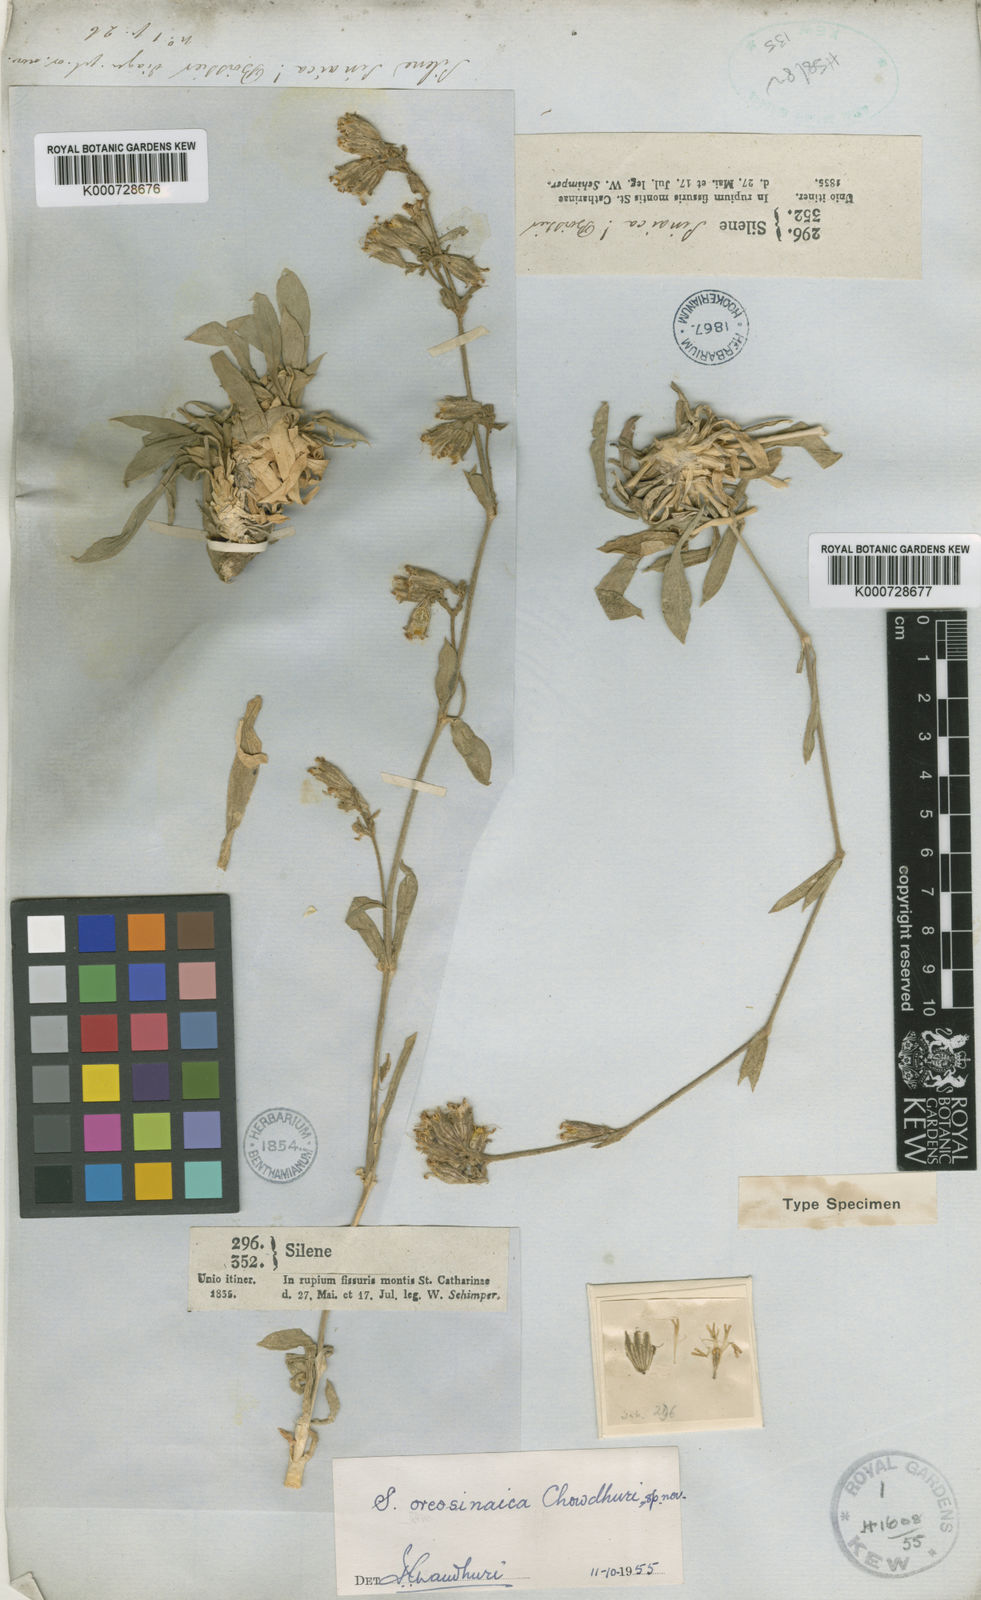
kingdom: Plantae
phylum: Tracheophyta
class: Magnoliopsida
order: Caryophyllales
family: Caryophyllaceae
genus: Silene
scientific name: Silene oreosinaica
